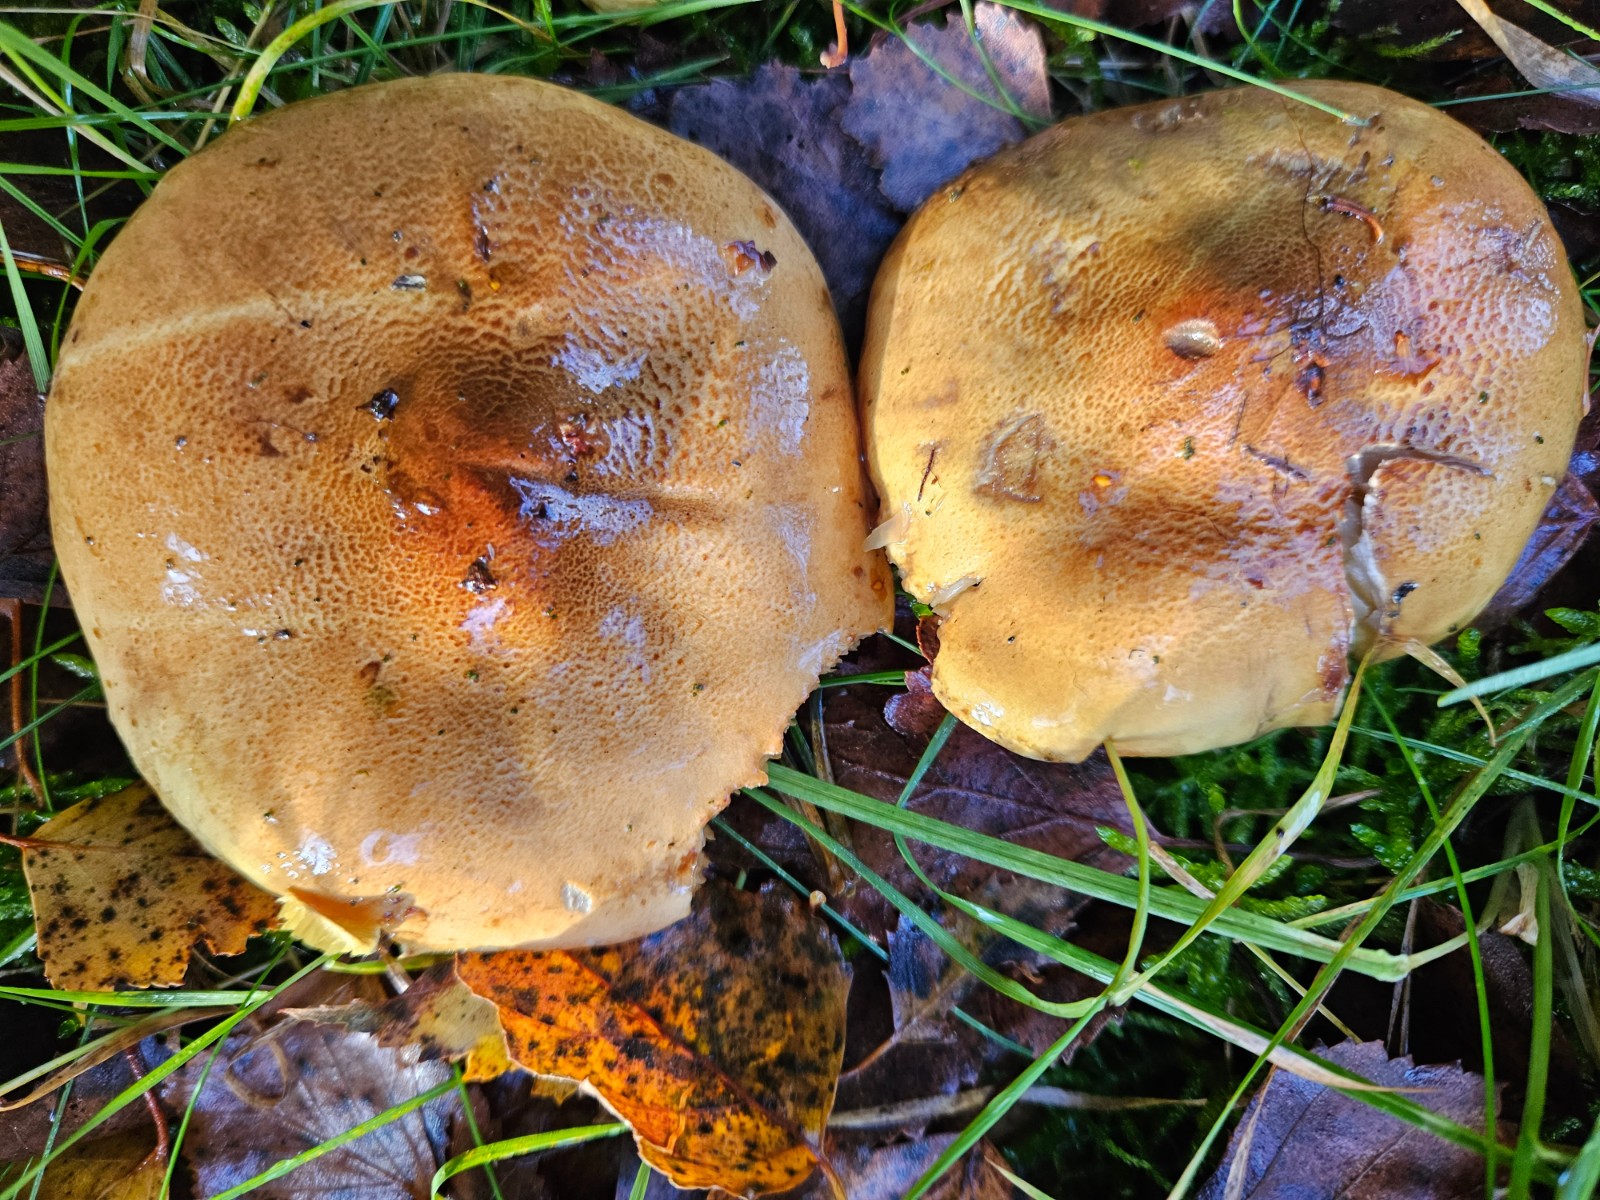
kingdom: Fungi
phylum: Basidiomycota
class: Agaricomycetes
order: Agaricales
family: Tricholomataceae
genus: Tricholoma
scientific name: Tricholoma frondosae
